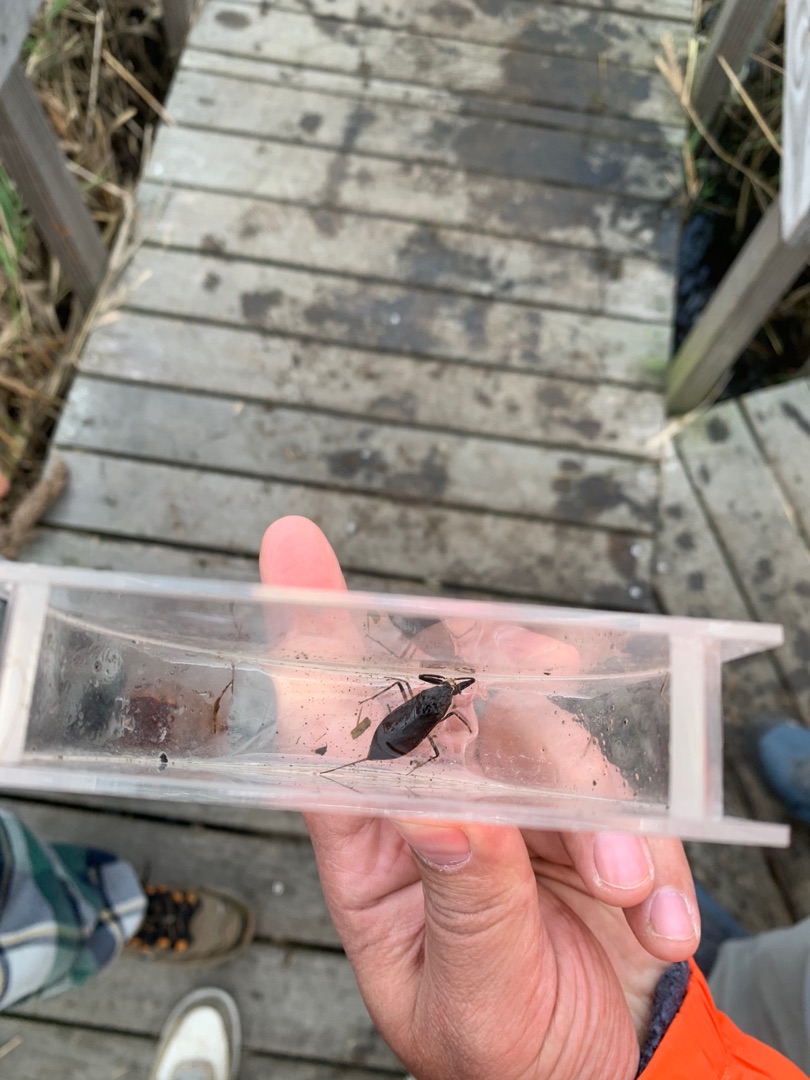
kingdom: Animalia
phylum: Arthropoda
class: Insecta
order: Hemiptera
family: Nepidae
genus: Nepa
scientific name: Nepa cinerea
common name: Skorpiontæge
